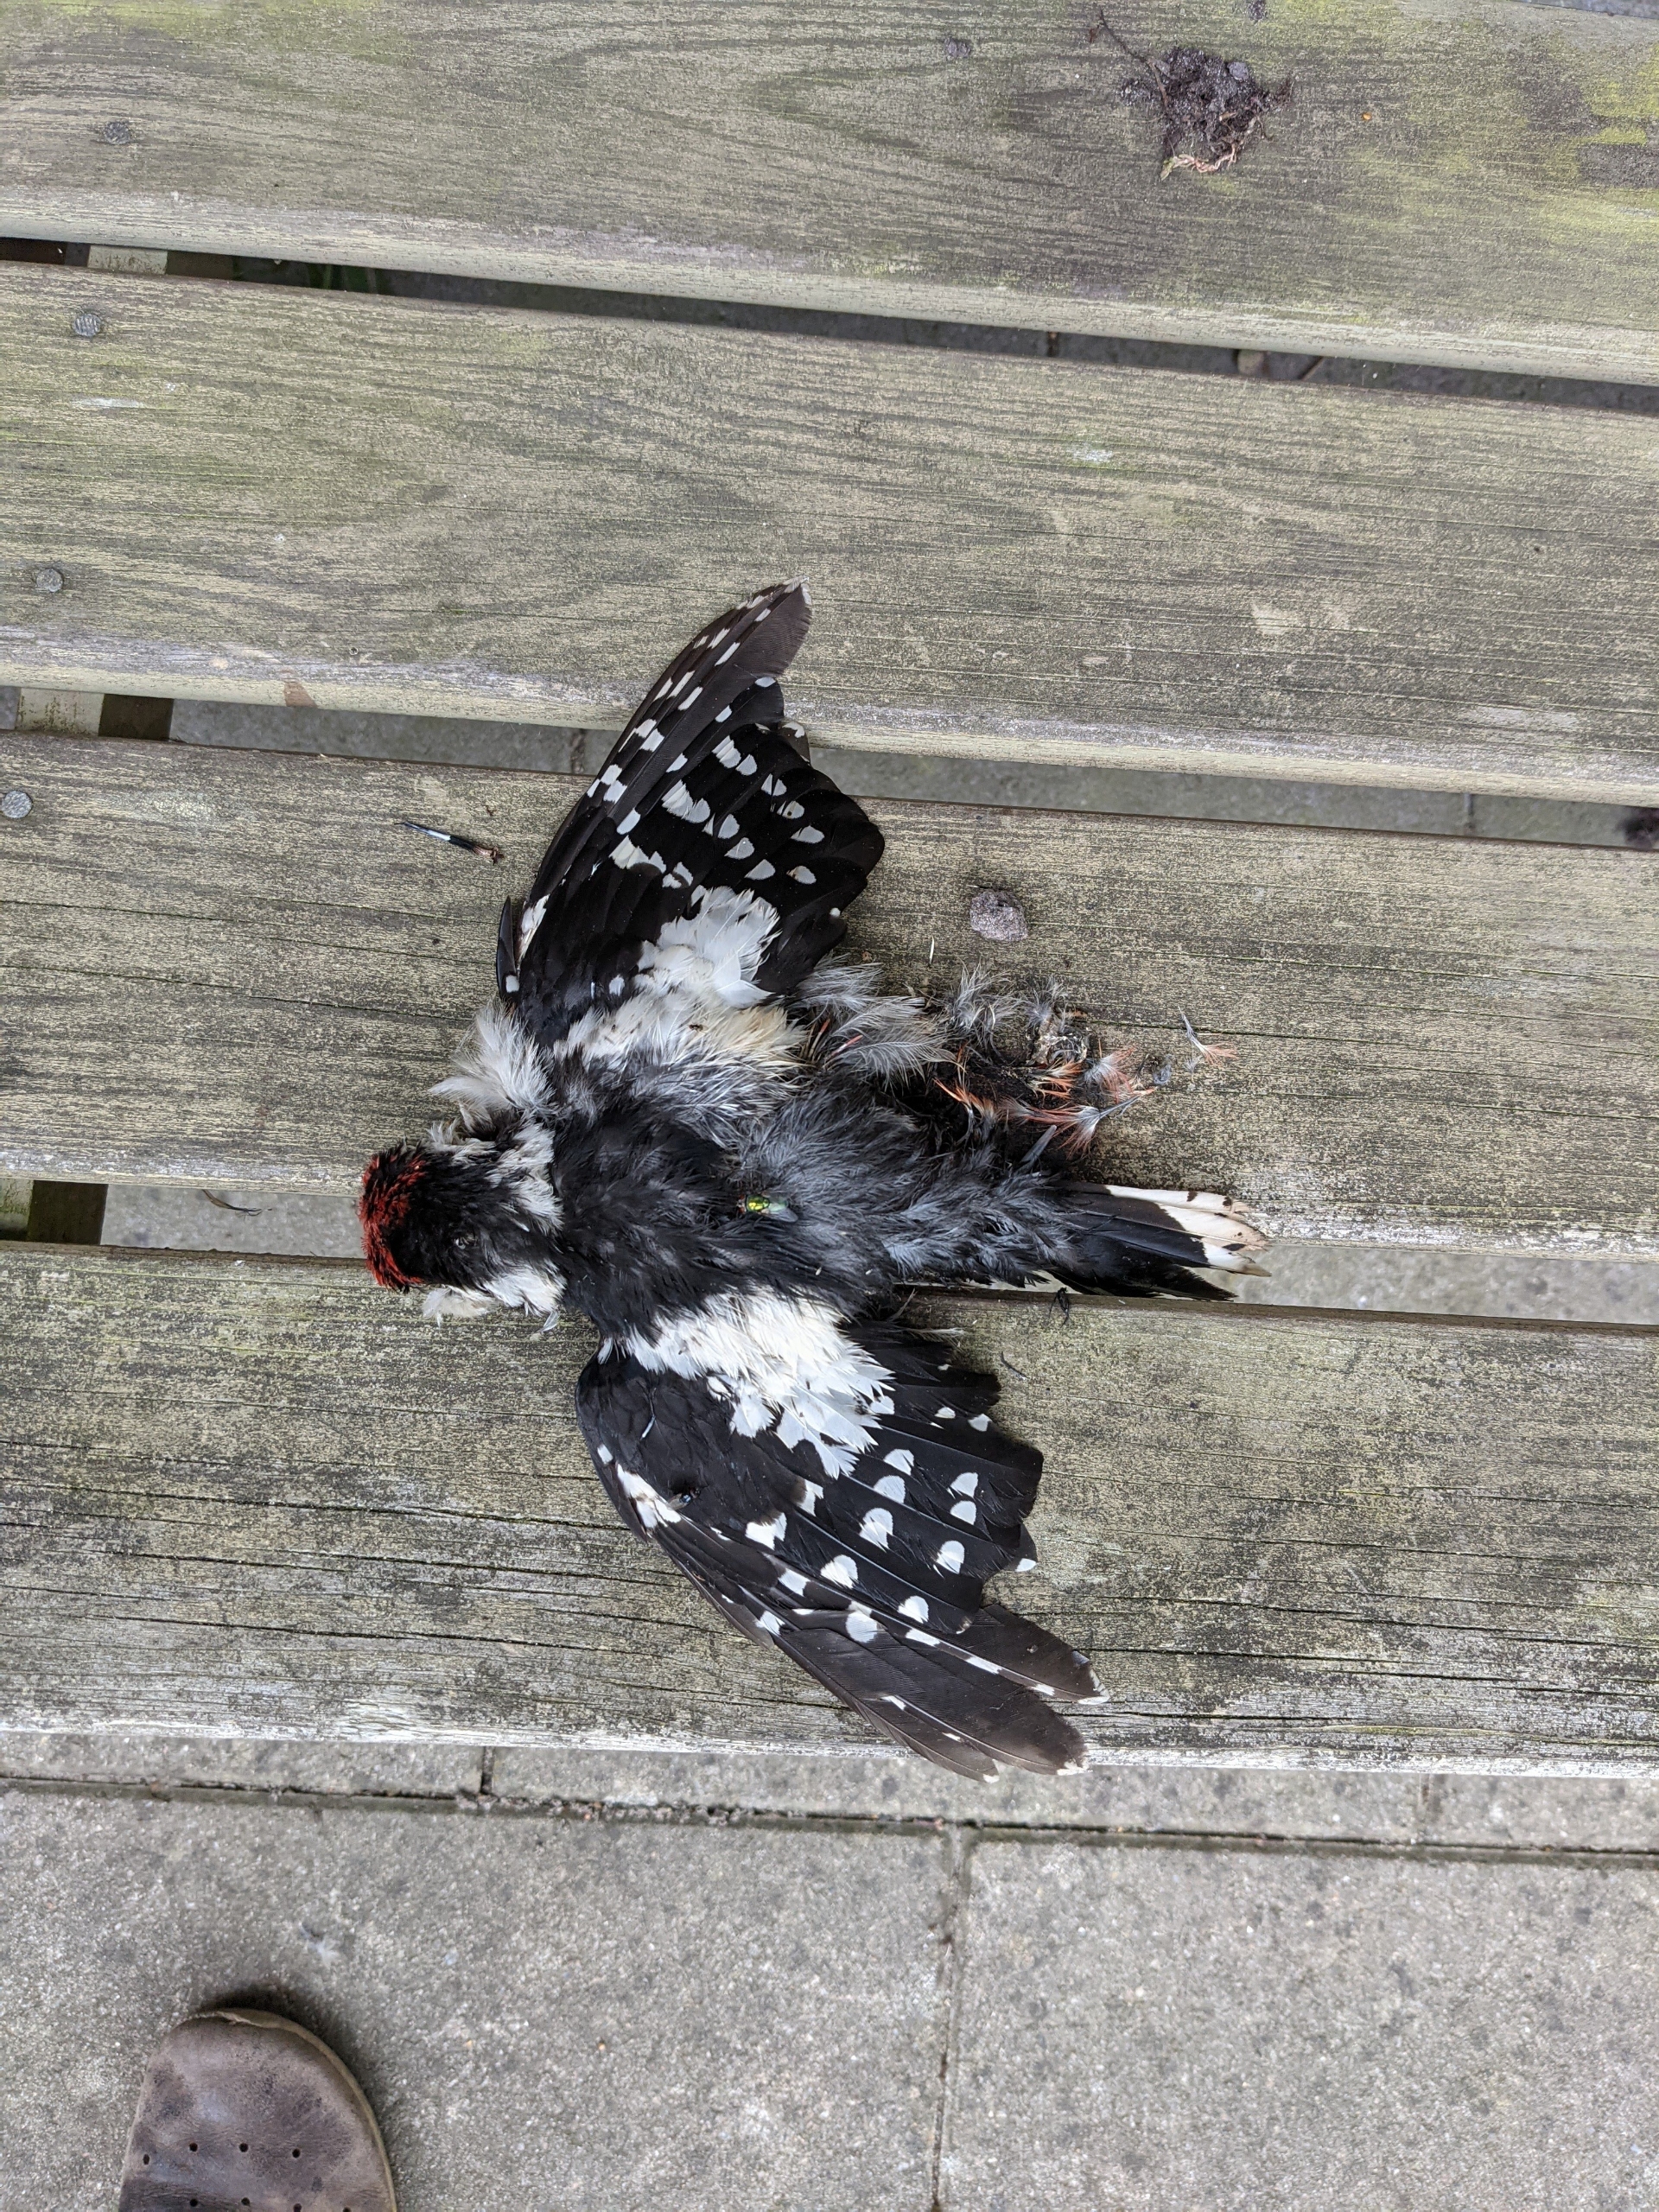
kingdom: Animalia
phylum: Chordata
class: Aves
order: Piciformes
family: Picidae
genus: Dendrocopos
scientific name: Dendrocopos major
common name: Stor flagspætte
